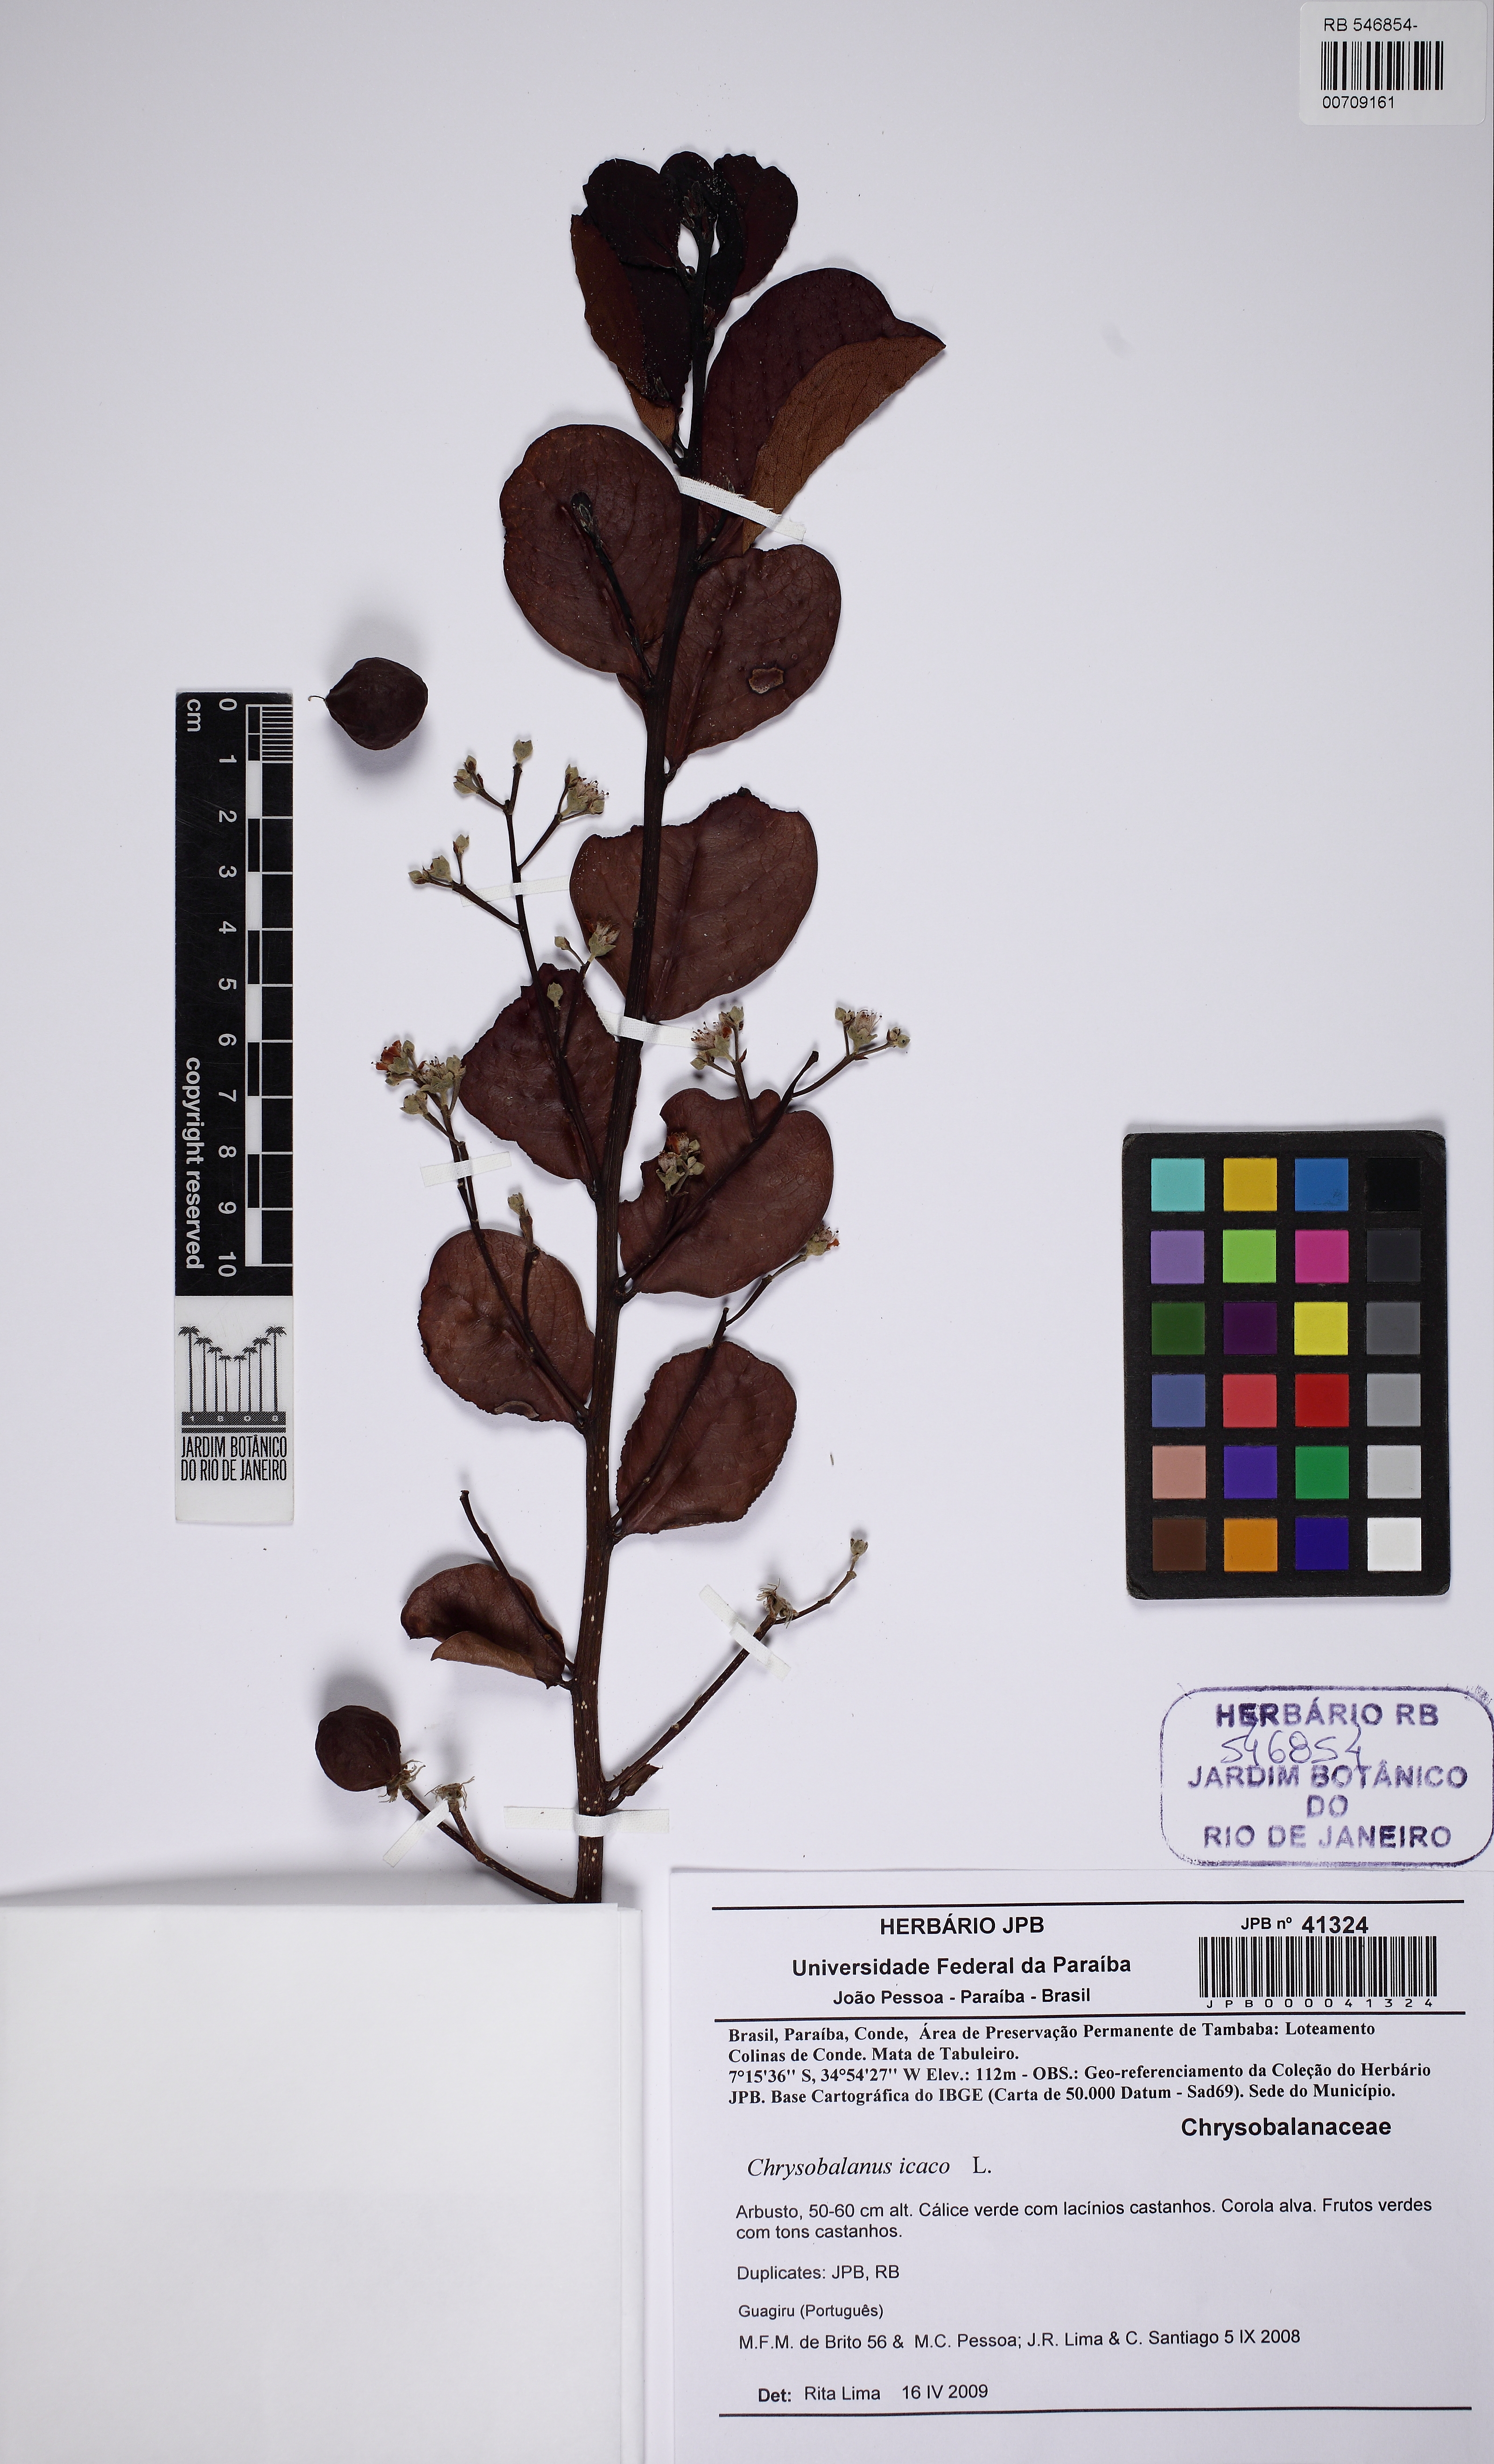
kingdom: Plantae
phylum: Tracheophyta
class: Magnoliopsida
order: Malpighiales
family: Chrysobalanaceae
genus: Chrysobalanus
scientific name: Chrysobalanus icaco
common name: Coco plum
